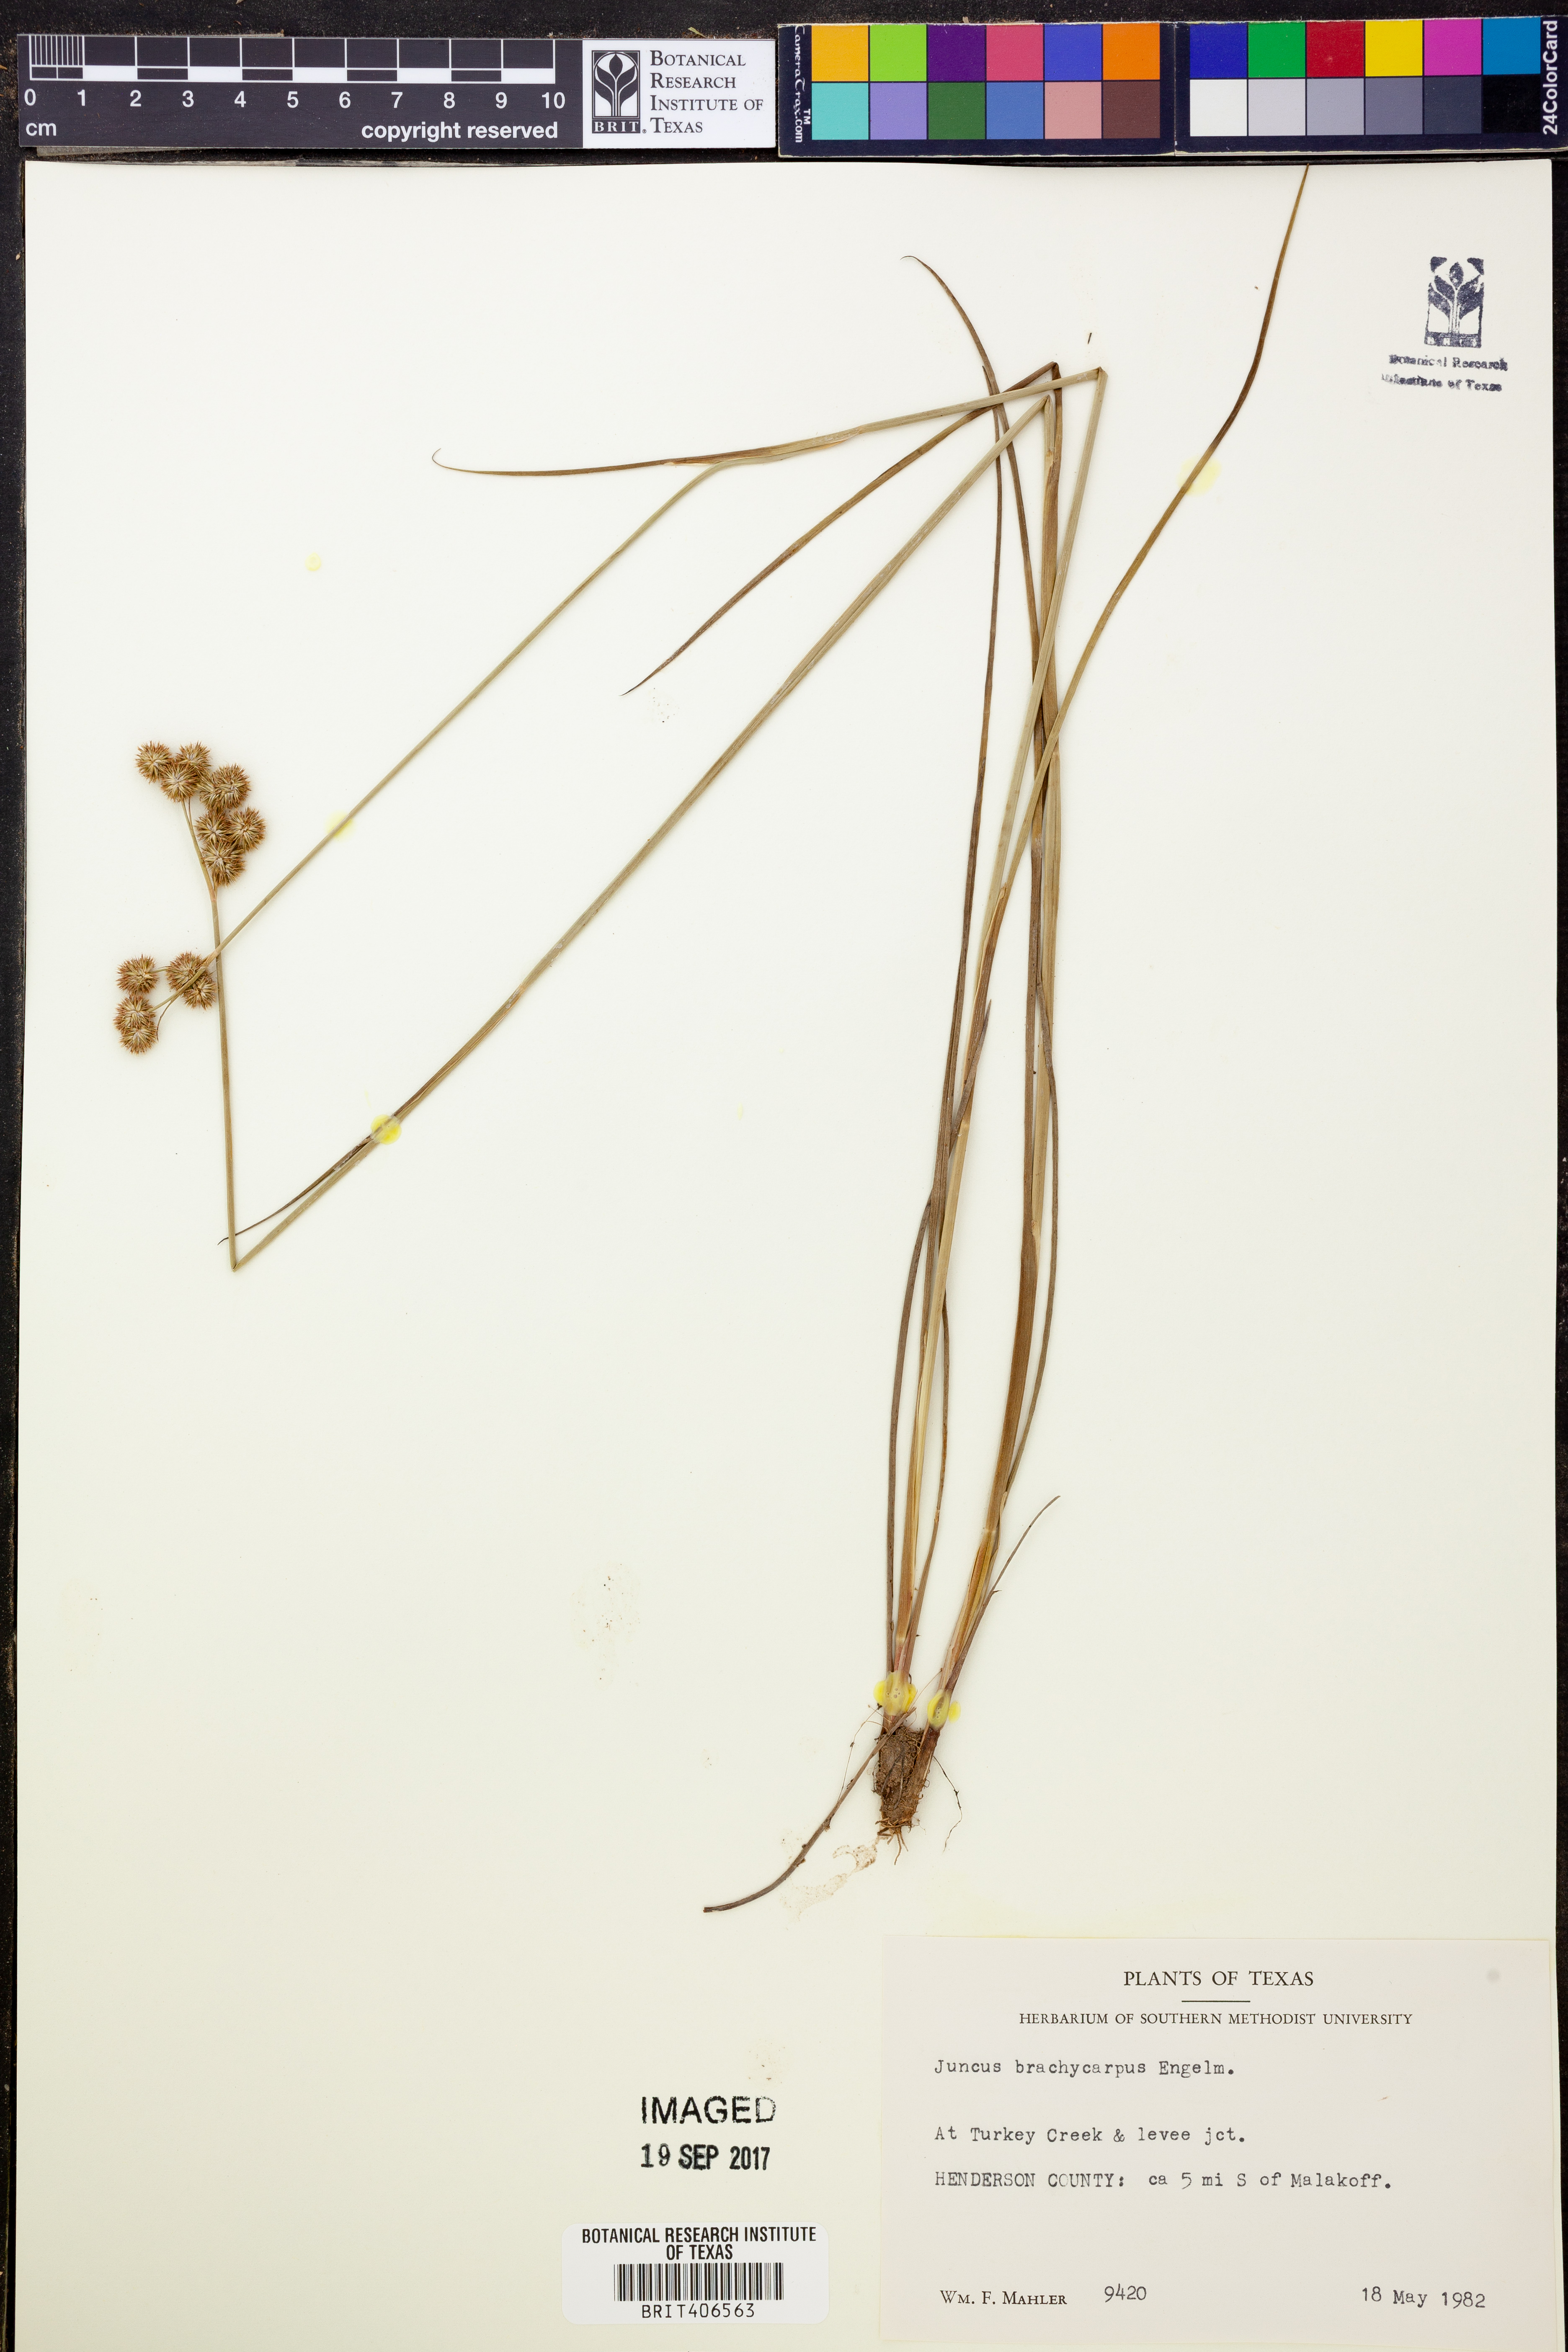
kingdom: Plantae
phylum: Tracheophyta
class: Liliopsida
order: Poales
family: Juncaceae
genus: Juncus
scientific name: Juncus brachycarpus
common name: Shore rush
